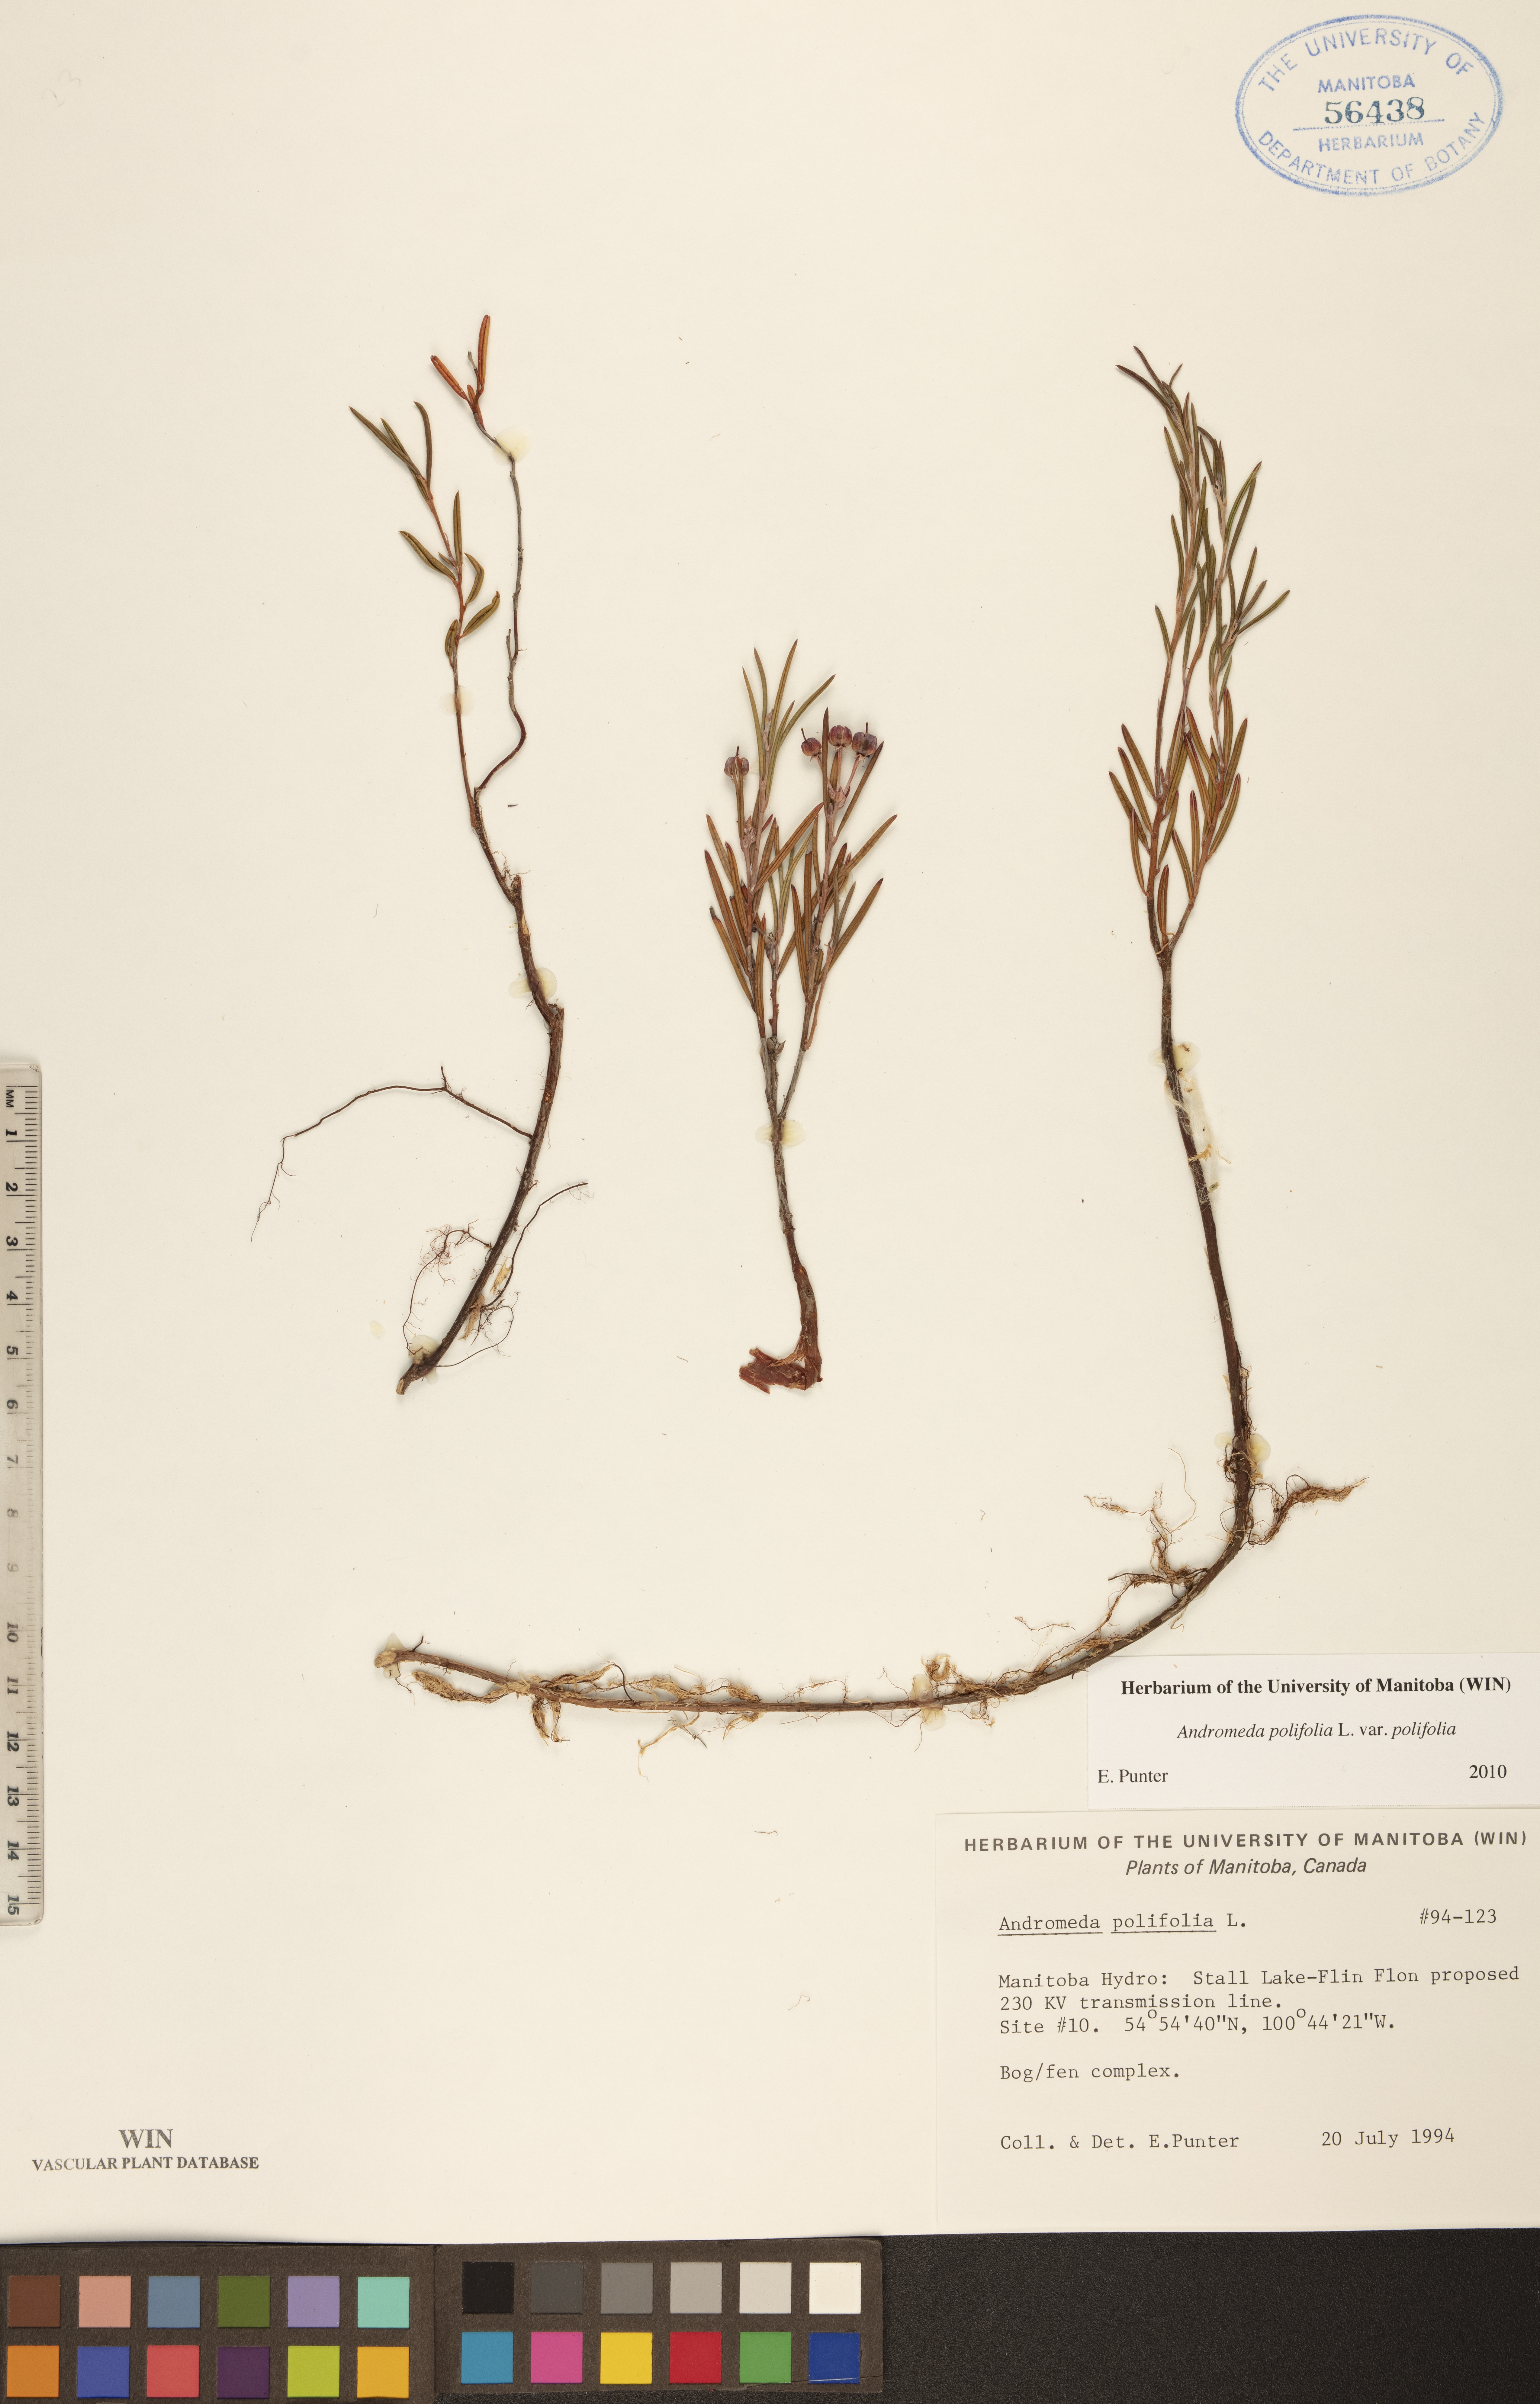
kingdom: Plantae
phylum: Tracheophyta
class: Magnoliopsida
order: Ericales
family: Ericaceae
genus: Andromeda
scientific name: Andromeda polifolia
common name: Bog-rosemary
